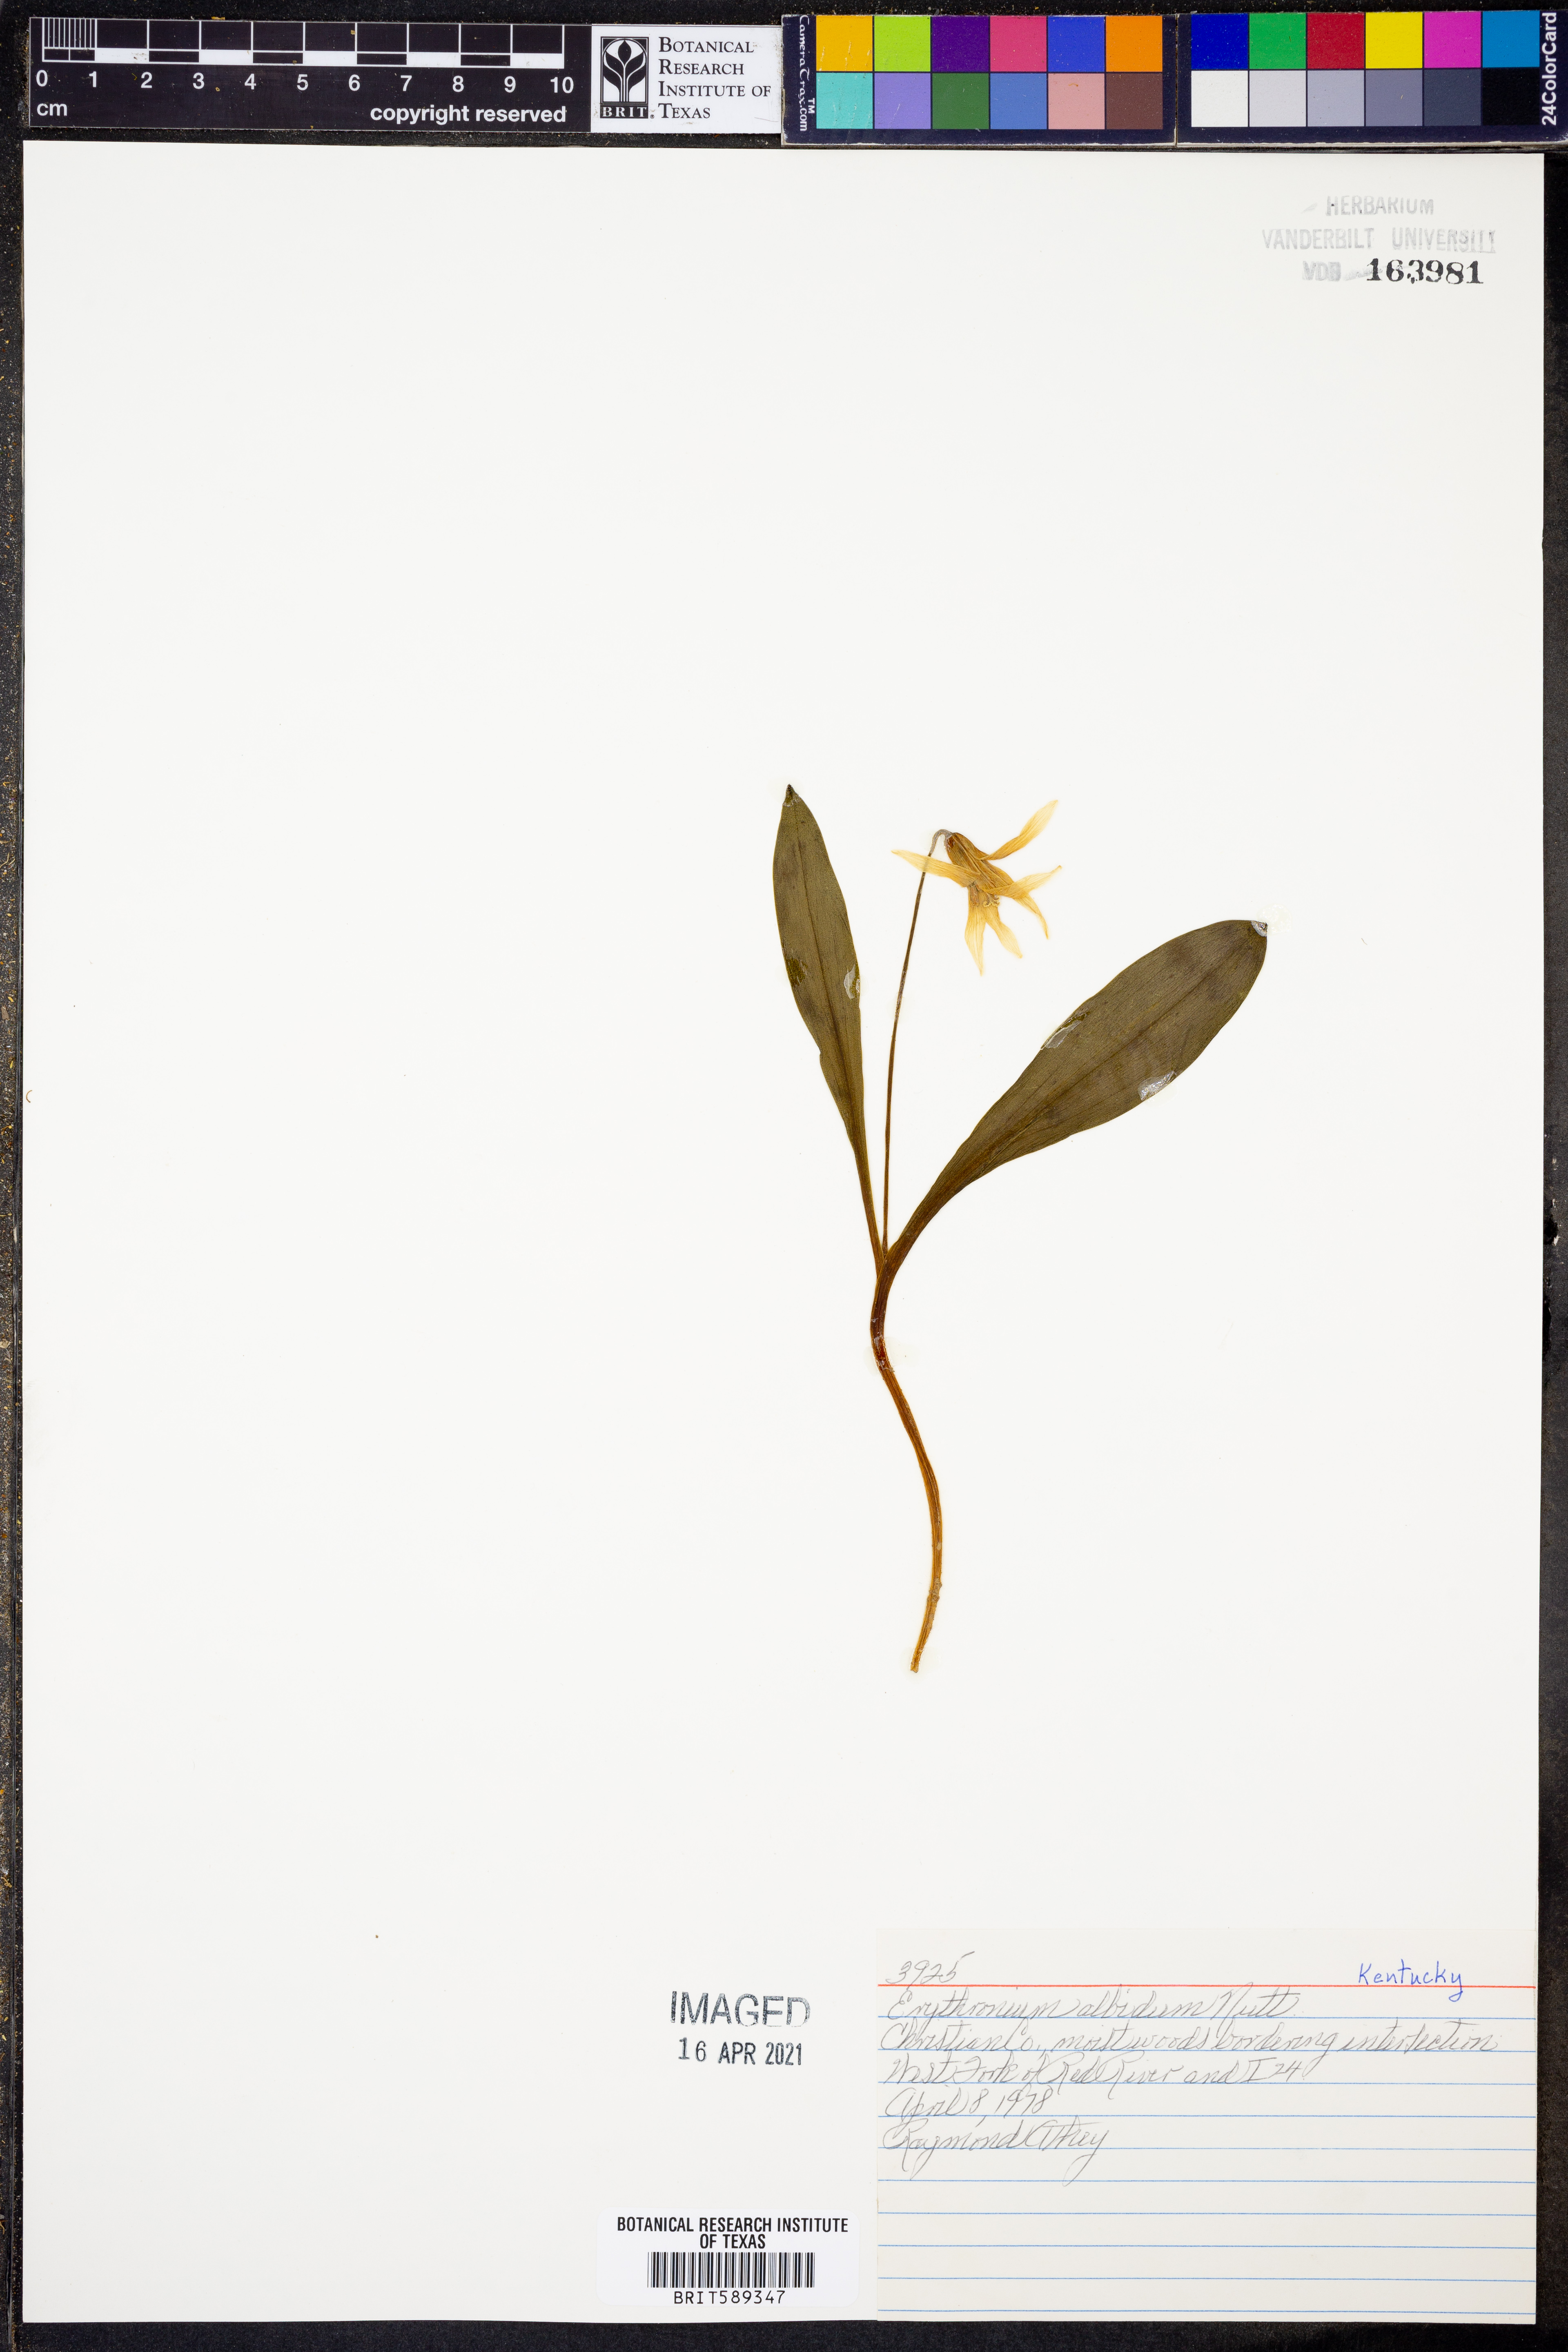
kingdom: Plantae
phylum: Tracheophyta
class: Liliopsida
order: Liliales
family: Liliaceae
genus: Erythronium
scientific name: Erythronium albidum
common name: White trout-lily
